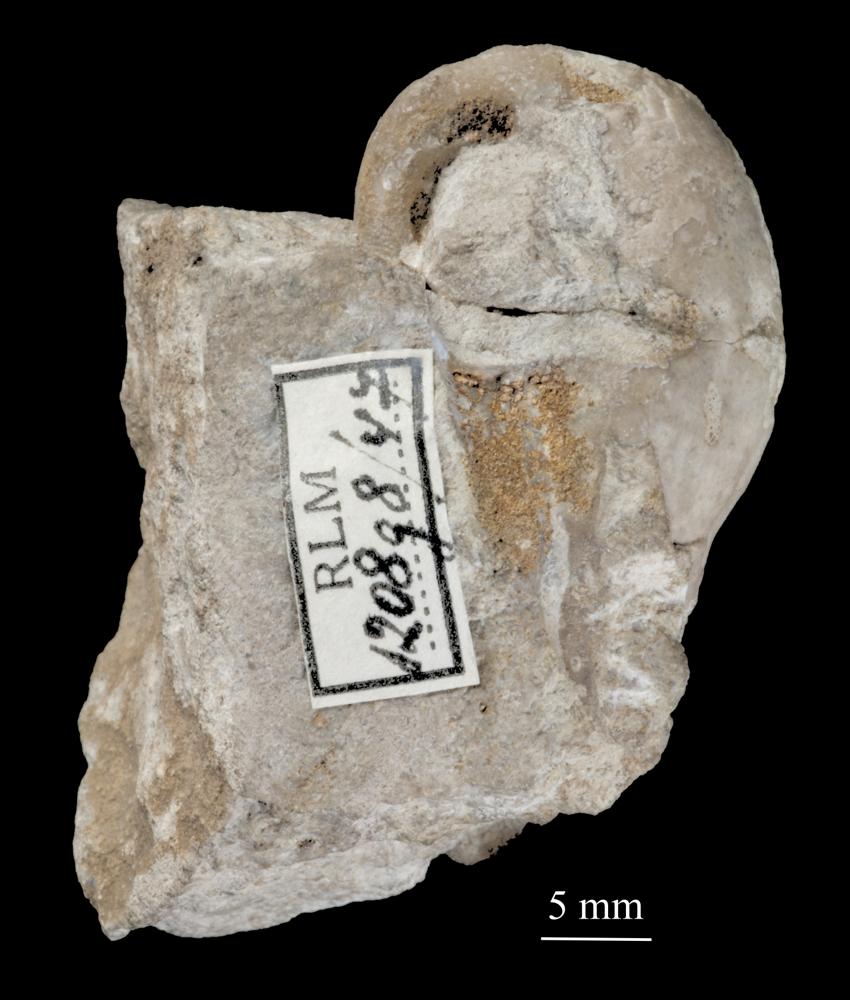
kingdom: Animalia
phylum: Mollusca
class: Gastropoda
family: Bucaniidae
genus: Salpingostoma
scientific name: Salpingostoma Bellerophon megalostoma
